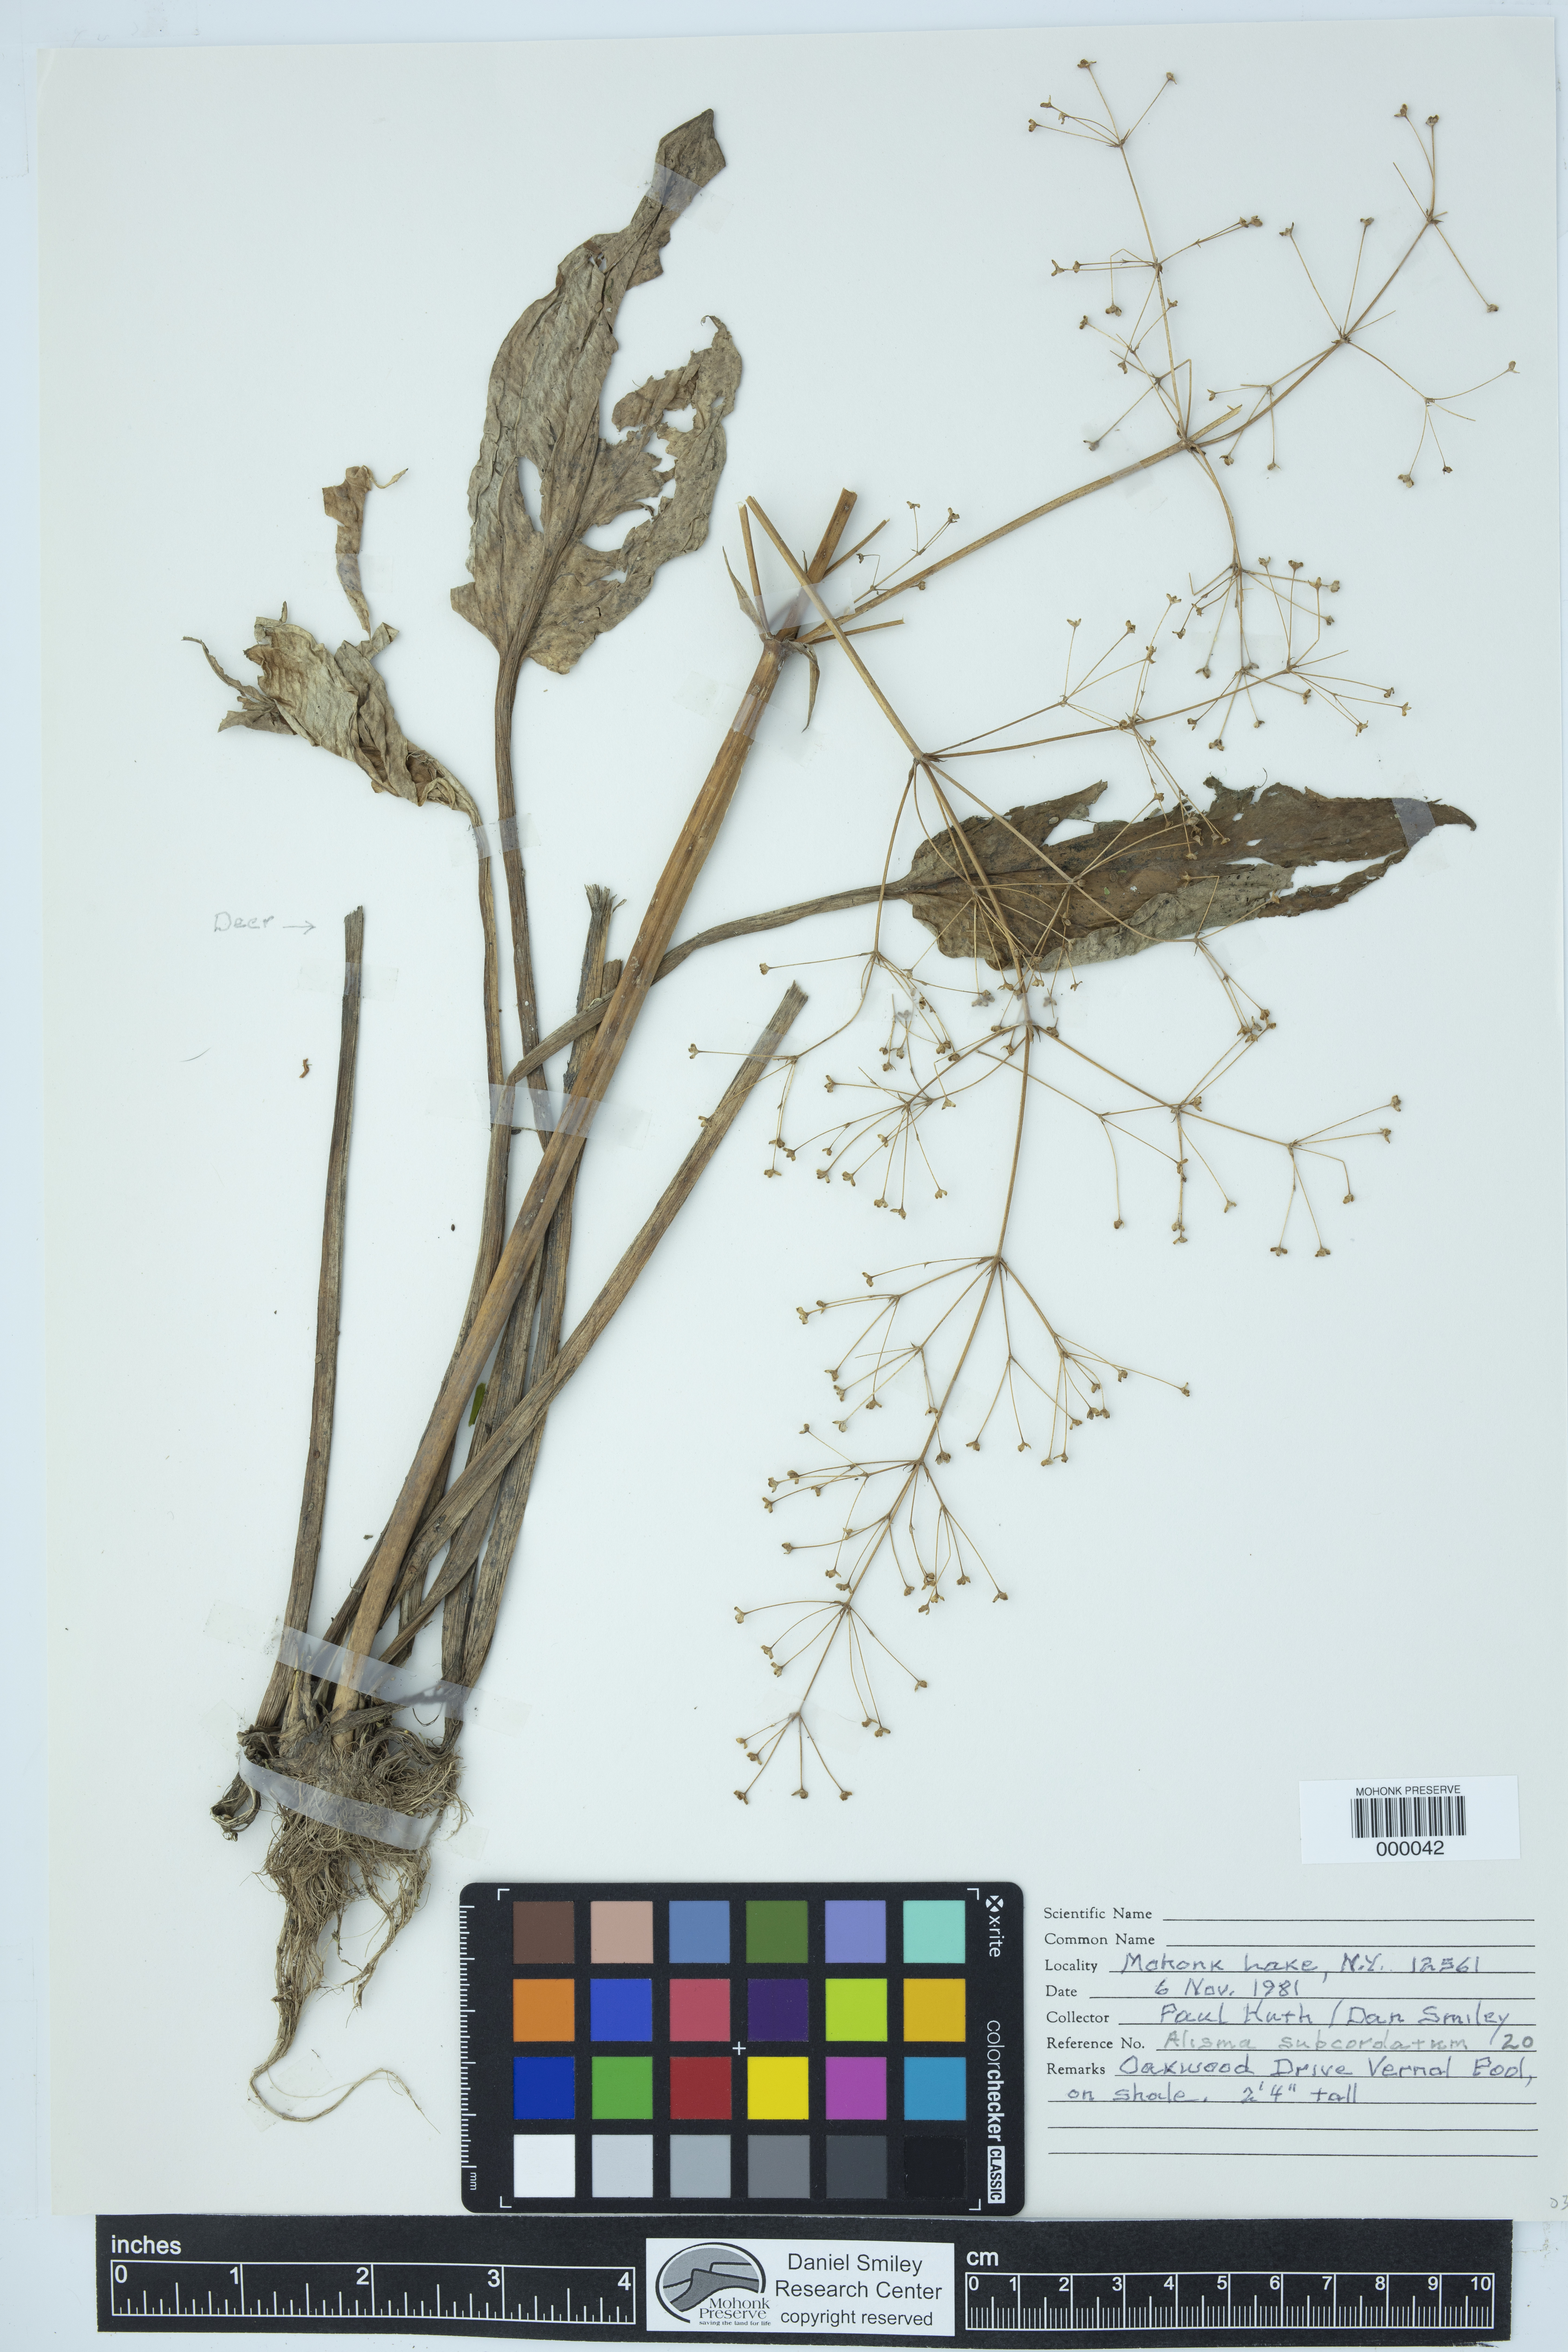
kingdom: Plantae
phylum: Tracheophyta
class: Liliopsida
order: Alismatales
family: Alismataceae
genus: Alisma
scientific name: Alisma subcordatum
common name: Southern water-plantain
